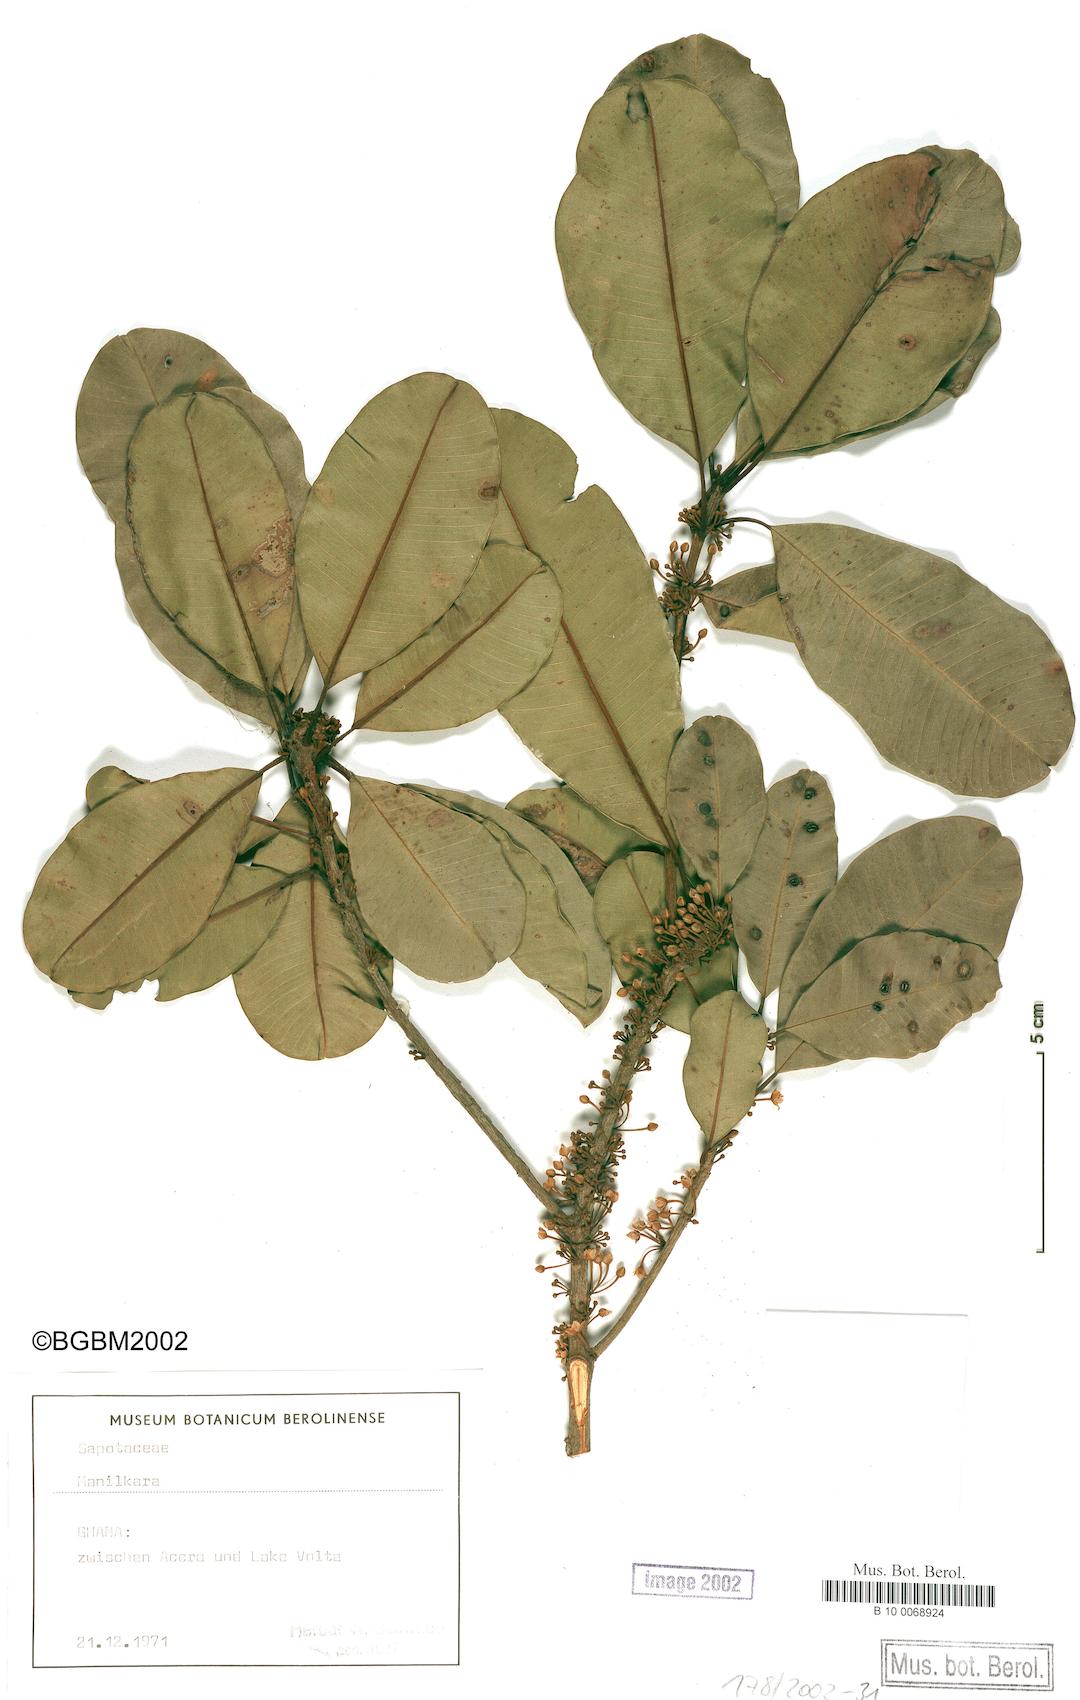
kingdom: Plantae
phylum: Tracheophyta
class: Magnoliopsida
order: Ericales
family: Sapotaceae
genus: Manilkara
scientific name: Manilkara
